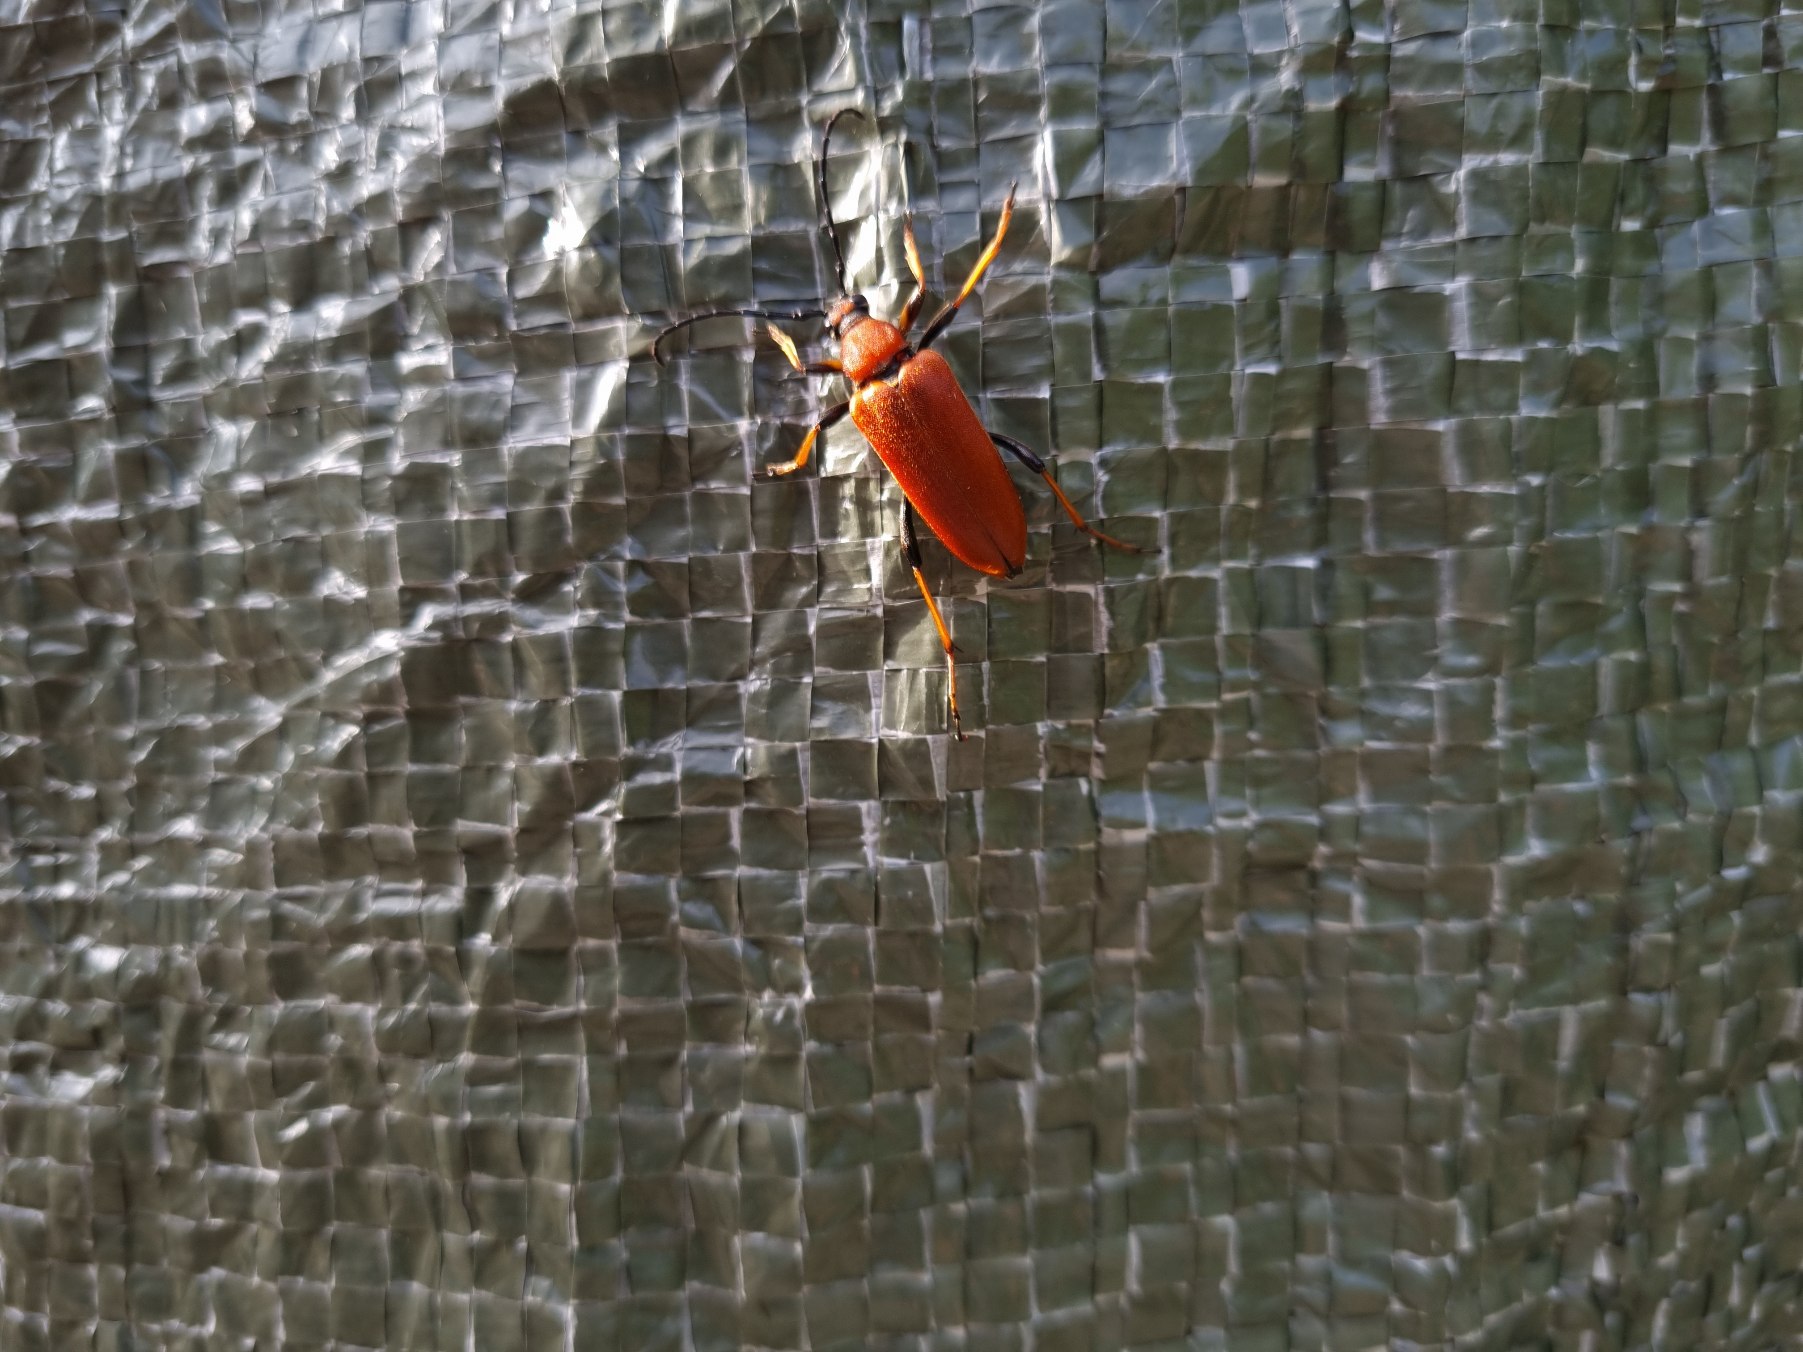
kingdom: Animalia
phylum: Arthropoda
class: Insecta
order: Coleoptera
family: Cerambycidae
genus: Stictoleptura
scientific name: Stictoleptura rubra
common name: Rød blomsterbuk
